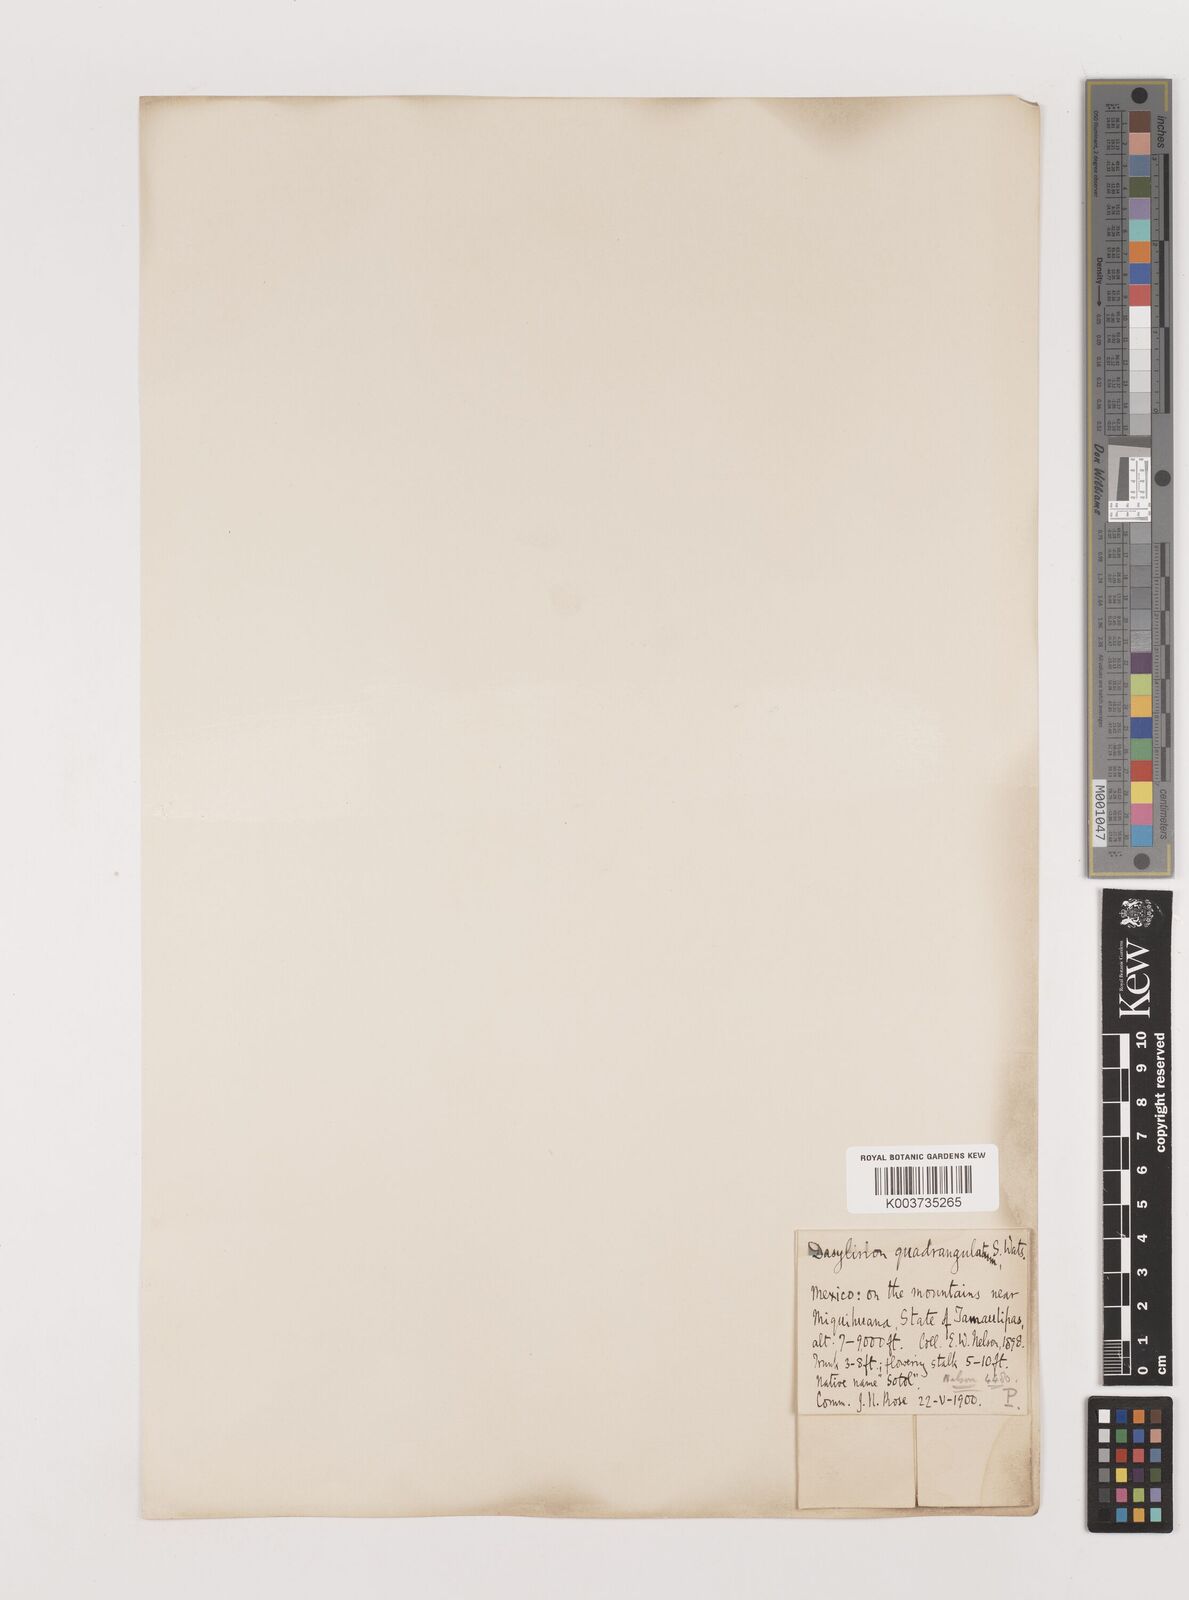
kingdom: Plantae
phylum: Tracheophyta
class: Liliopsida
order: Asparagales
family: Asparagaceae
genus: Dasylirion
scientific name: Dasylirion longissimum
